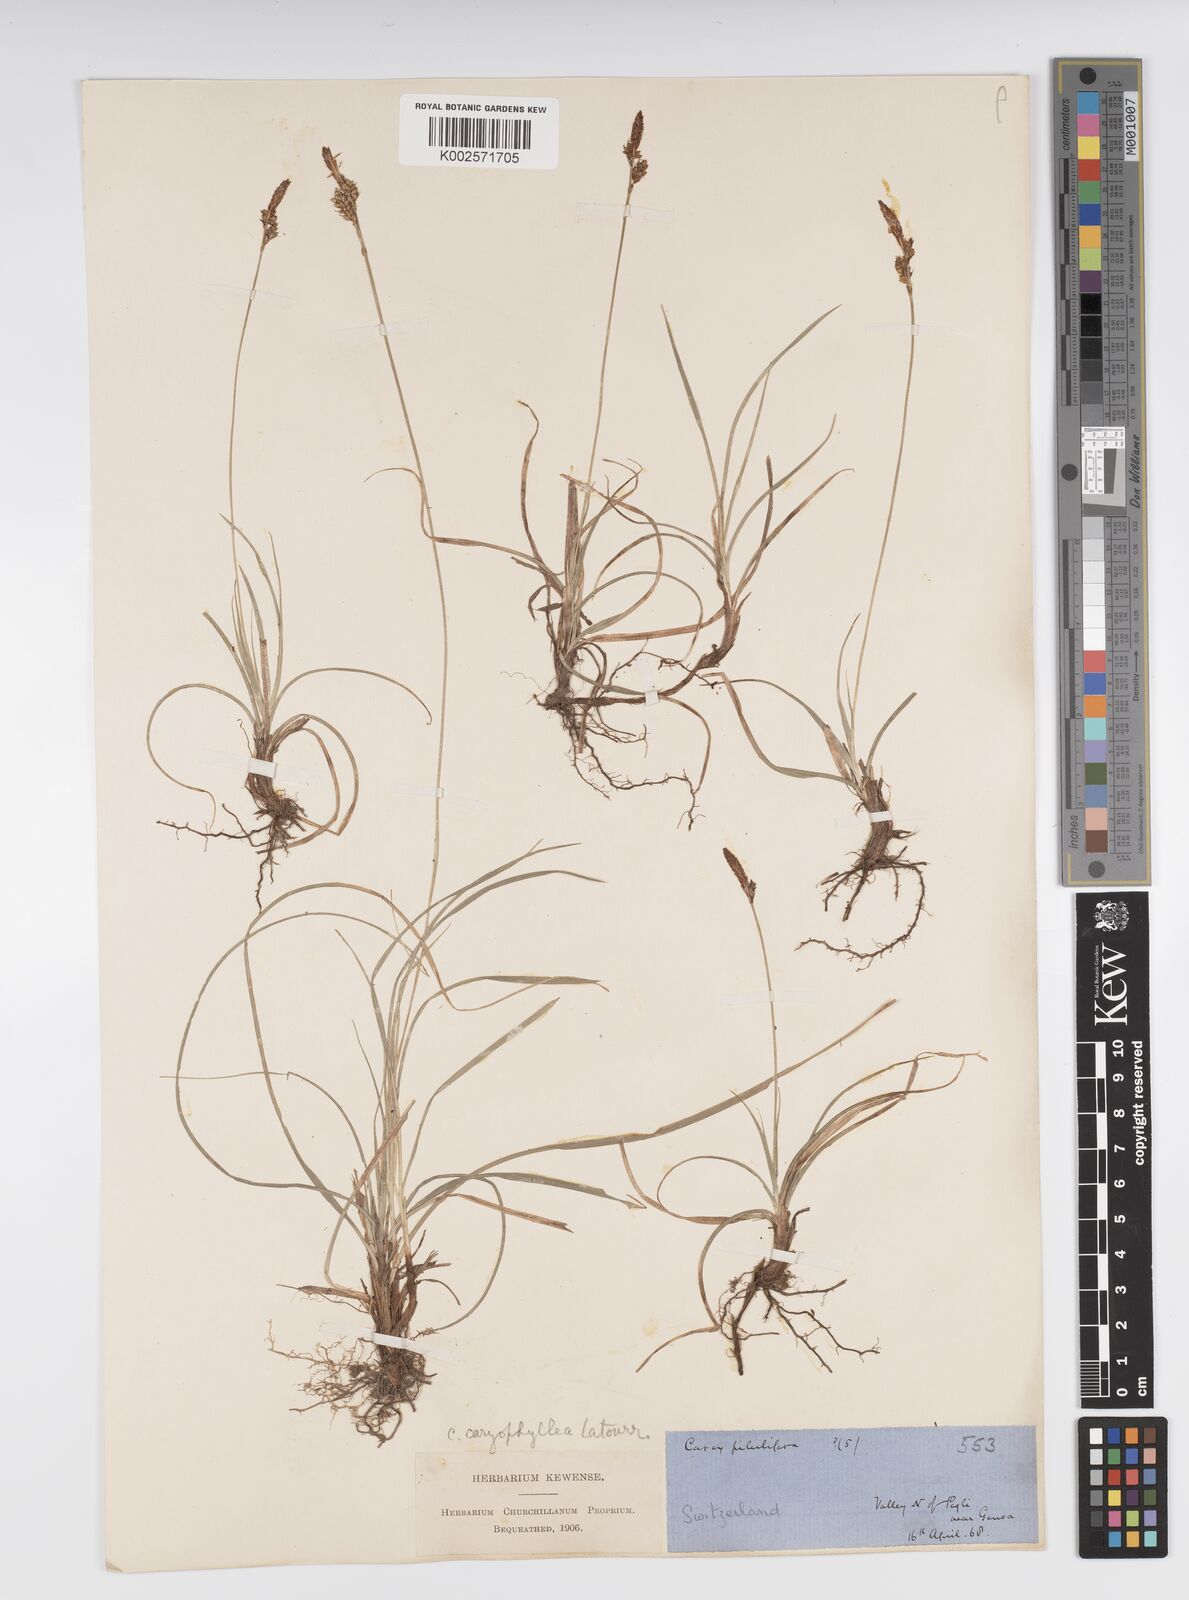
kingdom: Plantae
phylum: Tracheophyta
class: Liliopsida
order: Poales
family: Cyperaceae
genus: Carex
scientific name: Carex caryophyllea
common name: Spring sedge
